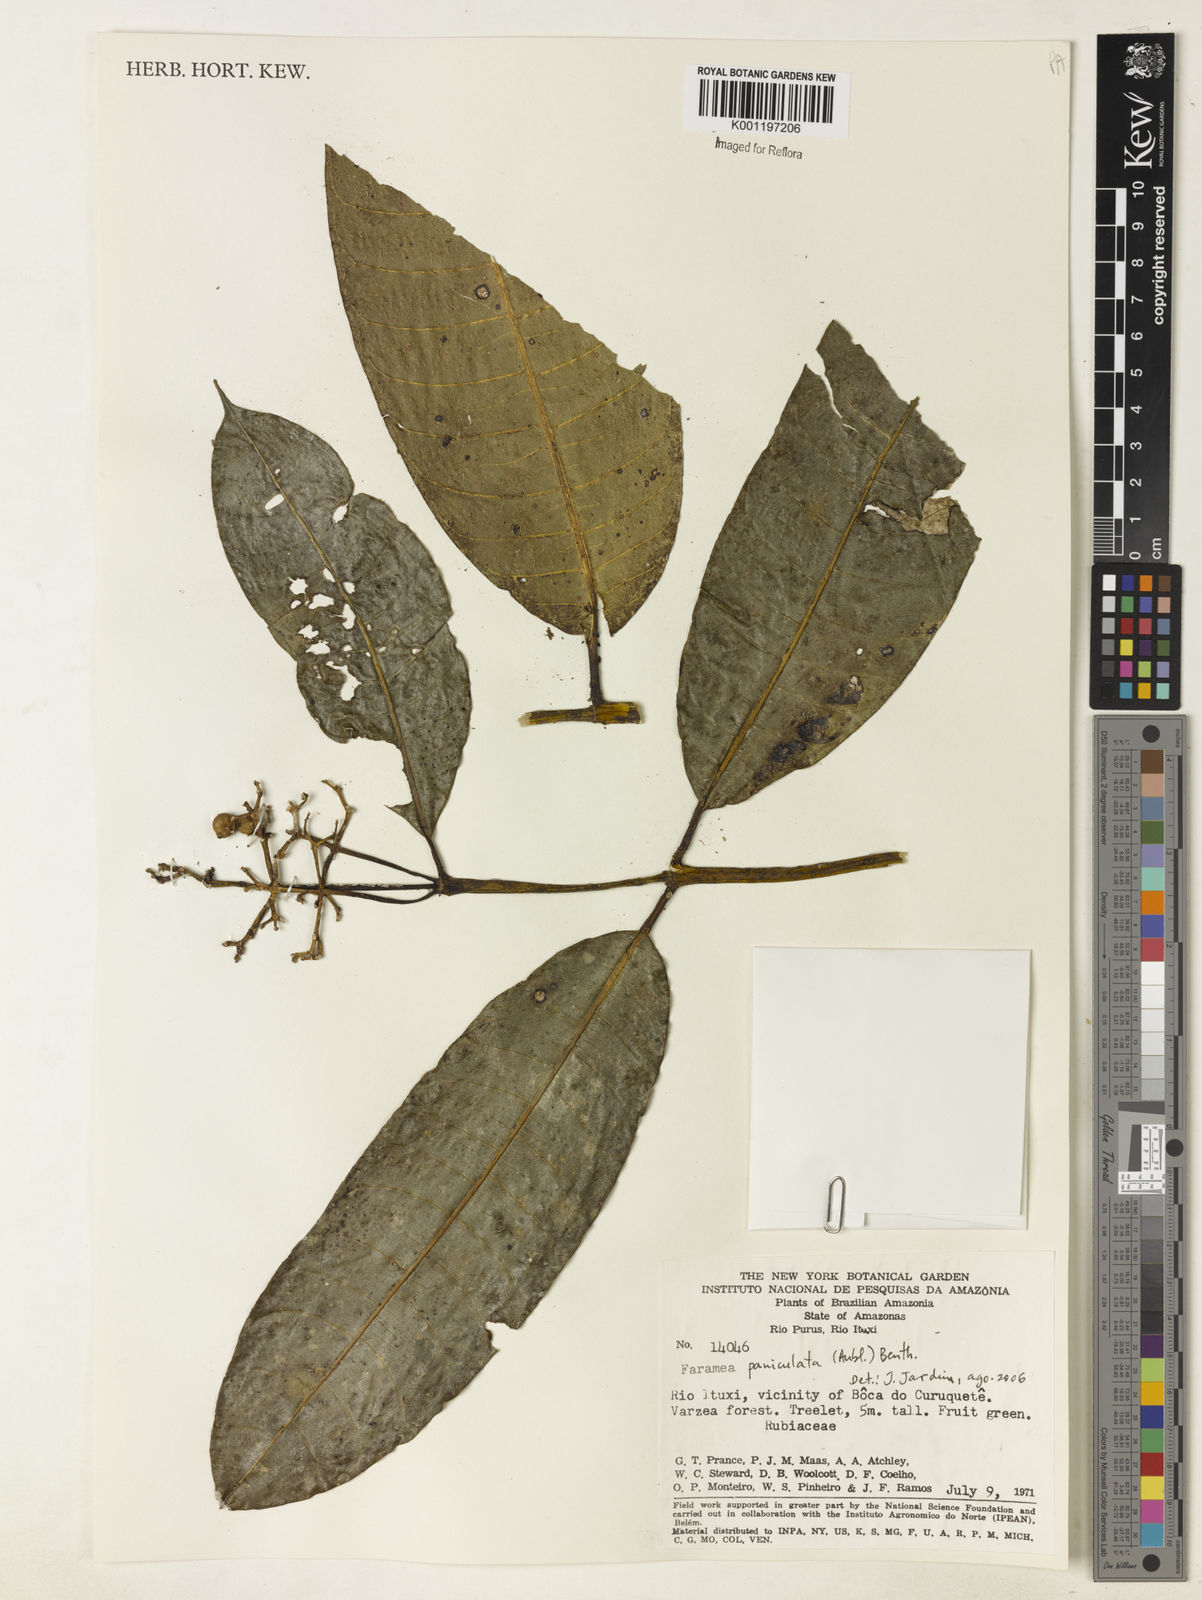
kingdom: Plantae
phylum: Tracheophyta
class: Magnoliopsida
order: Gentianales
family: Rubiaceae
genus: Faramea
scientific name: Faramea paniculata
